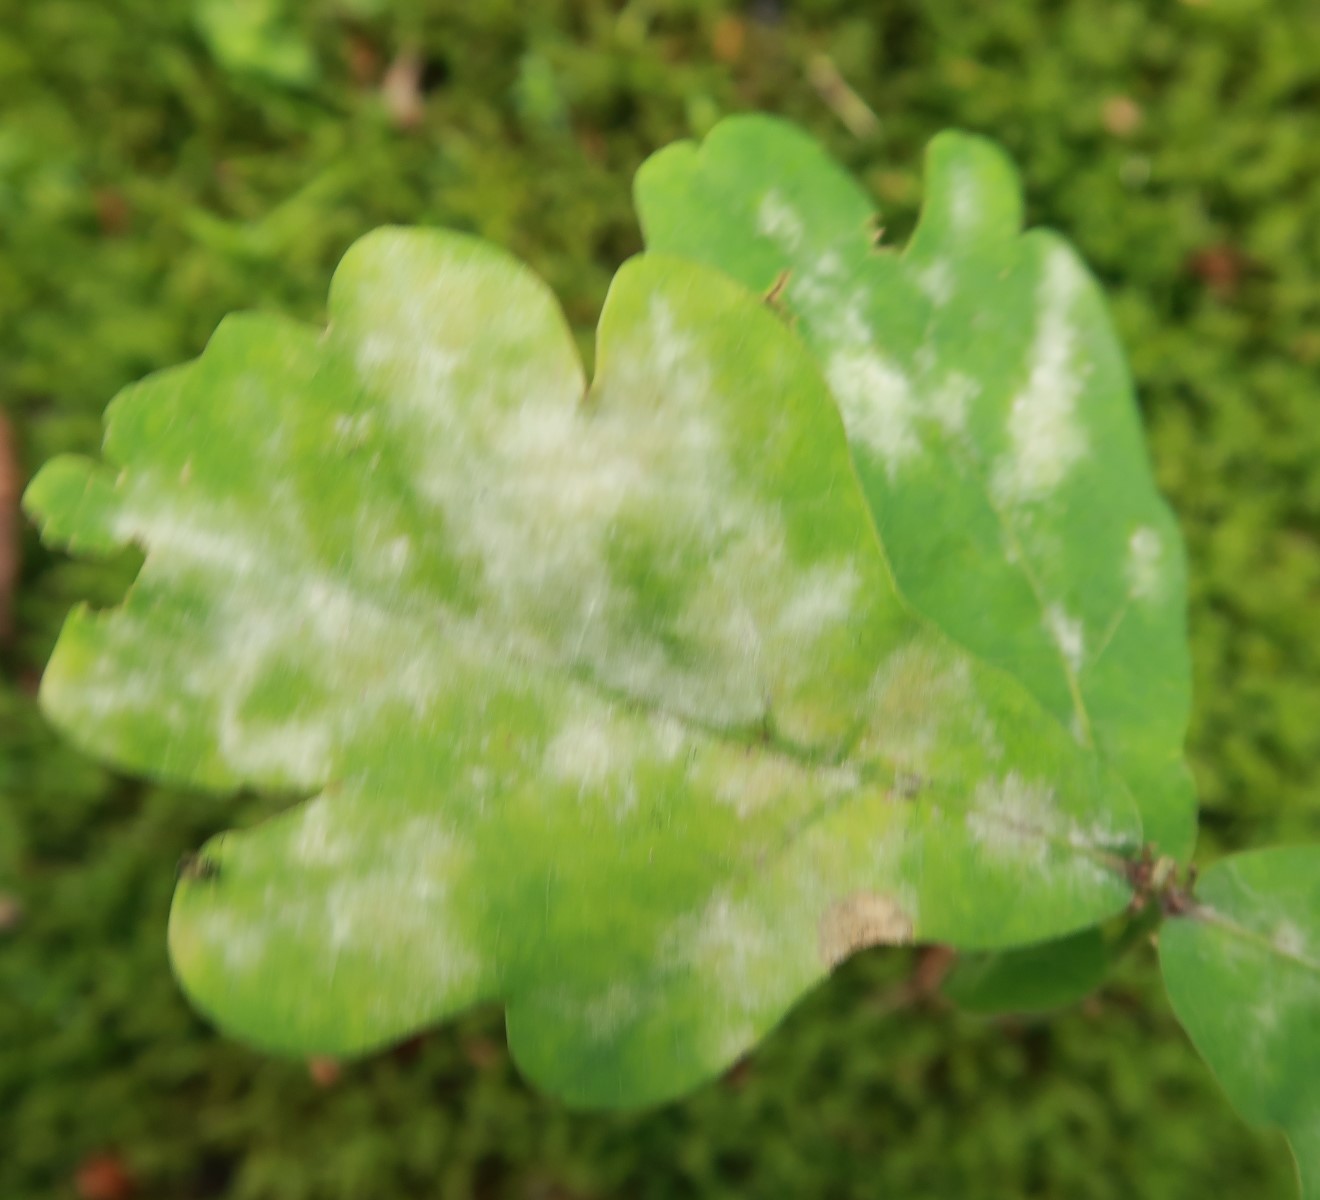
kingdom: Fungi
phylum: Ascomycota
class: Leotiomycetes
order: Helotiales
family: Erysiphaceae
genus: Erysiphe
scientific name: Erysiphe alphitoides
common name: ege-meldug
